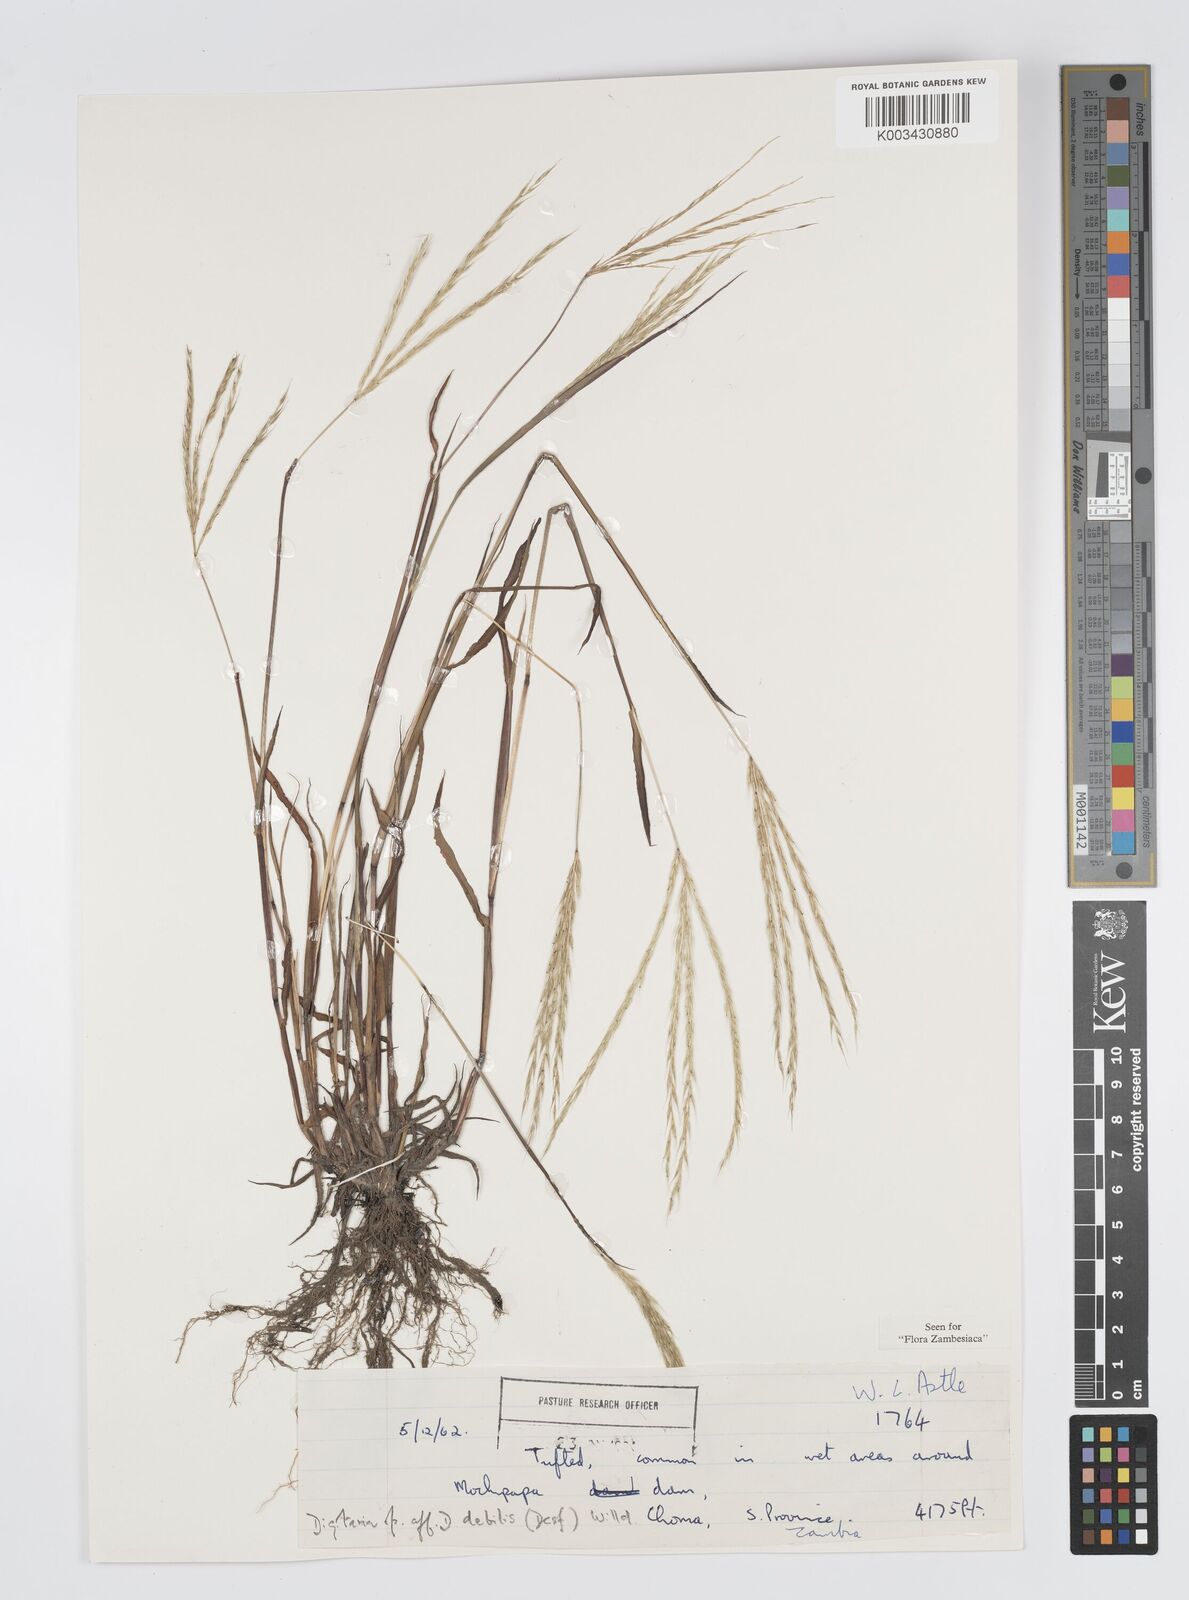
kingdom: Plantae
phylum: Tracheophyta
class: Liliopsida
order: Poales
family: Poaceae
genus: Digitaria
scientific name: Digitaria remotigluma
